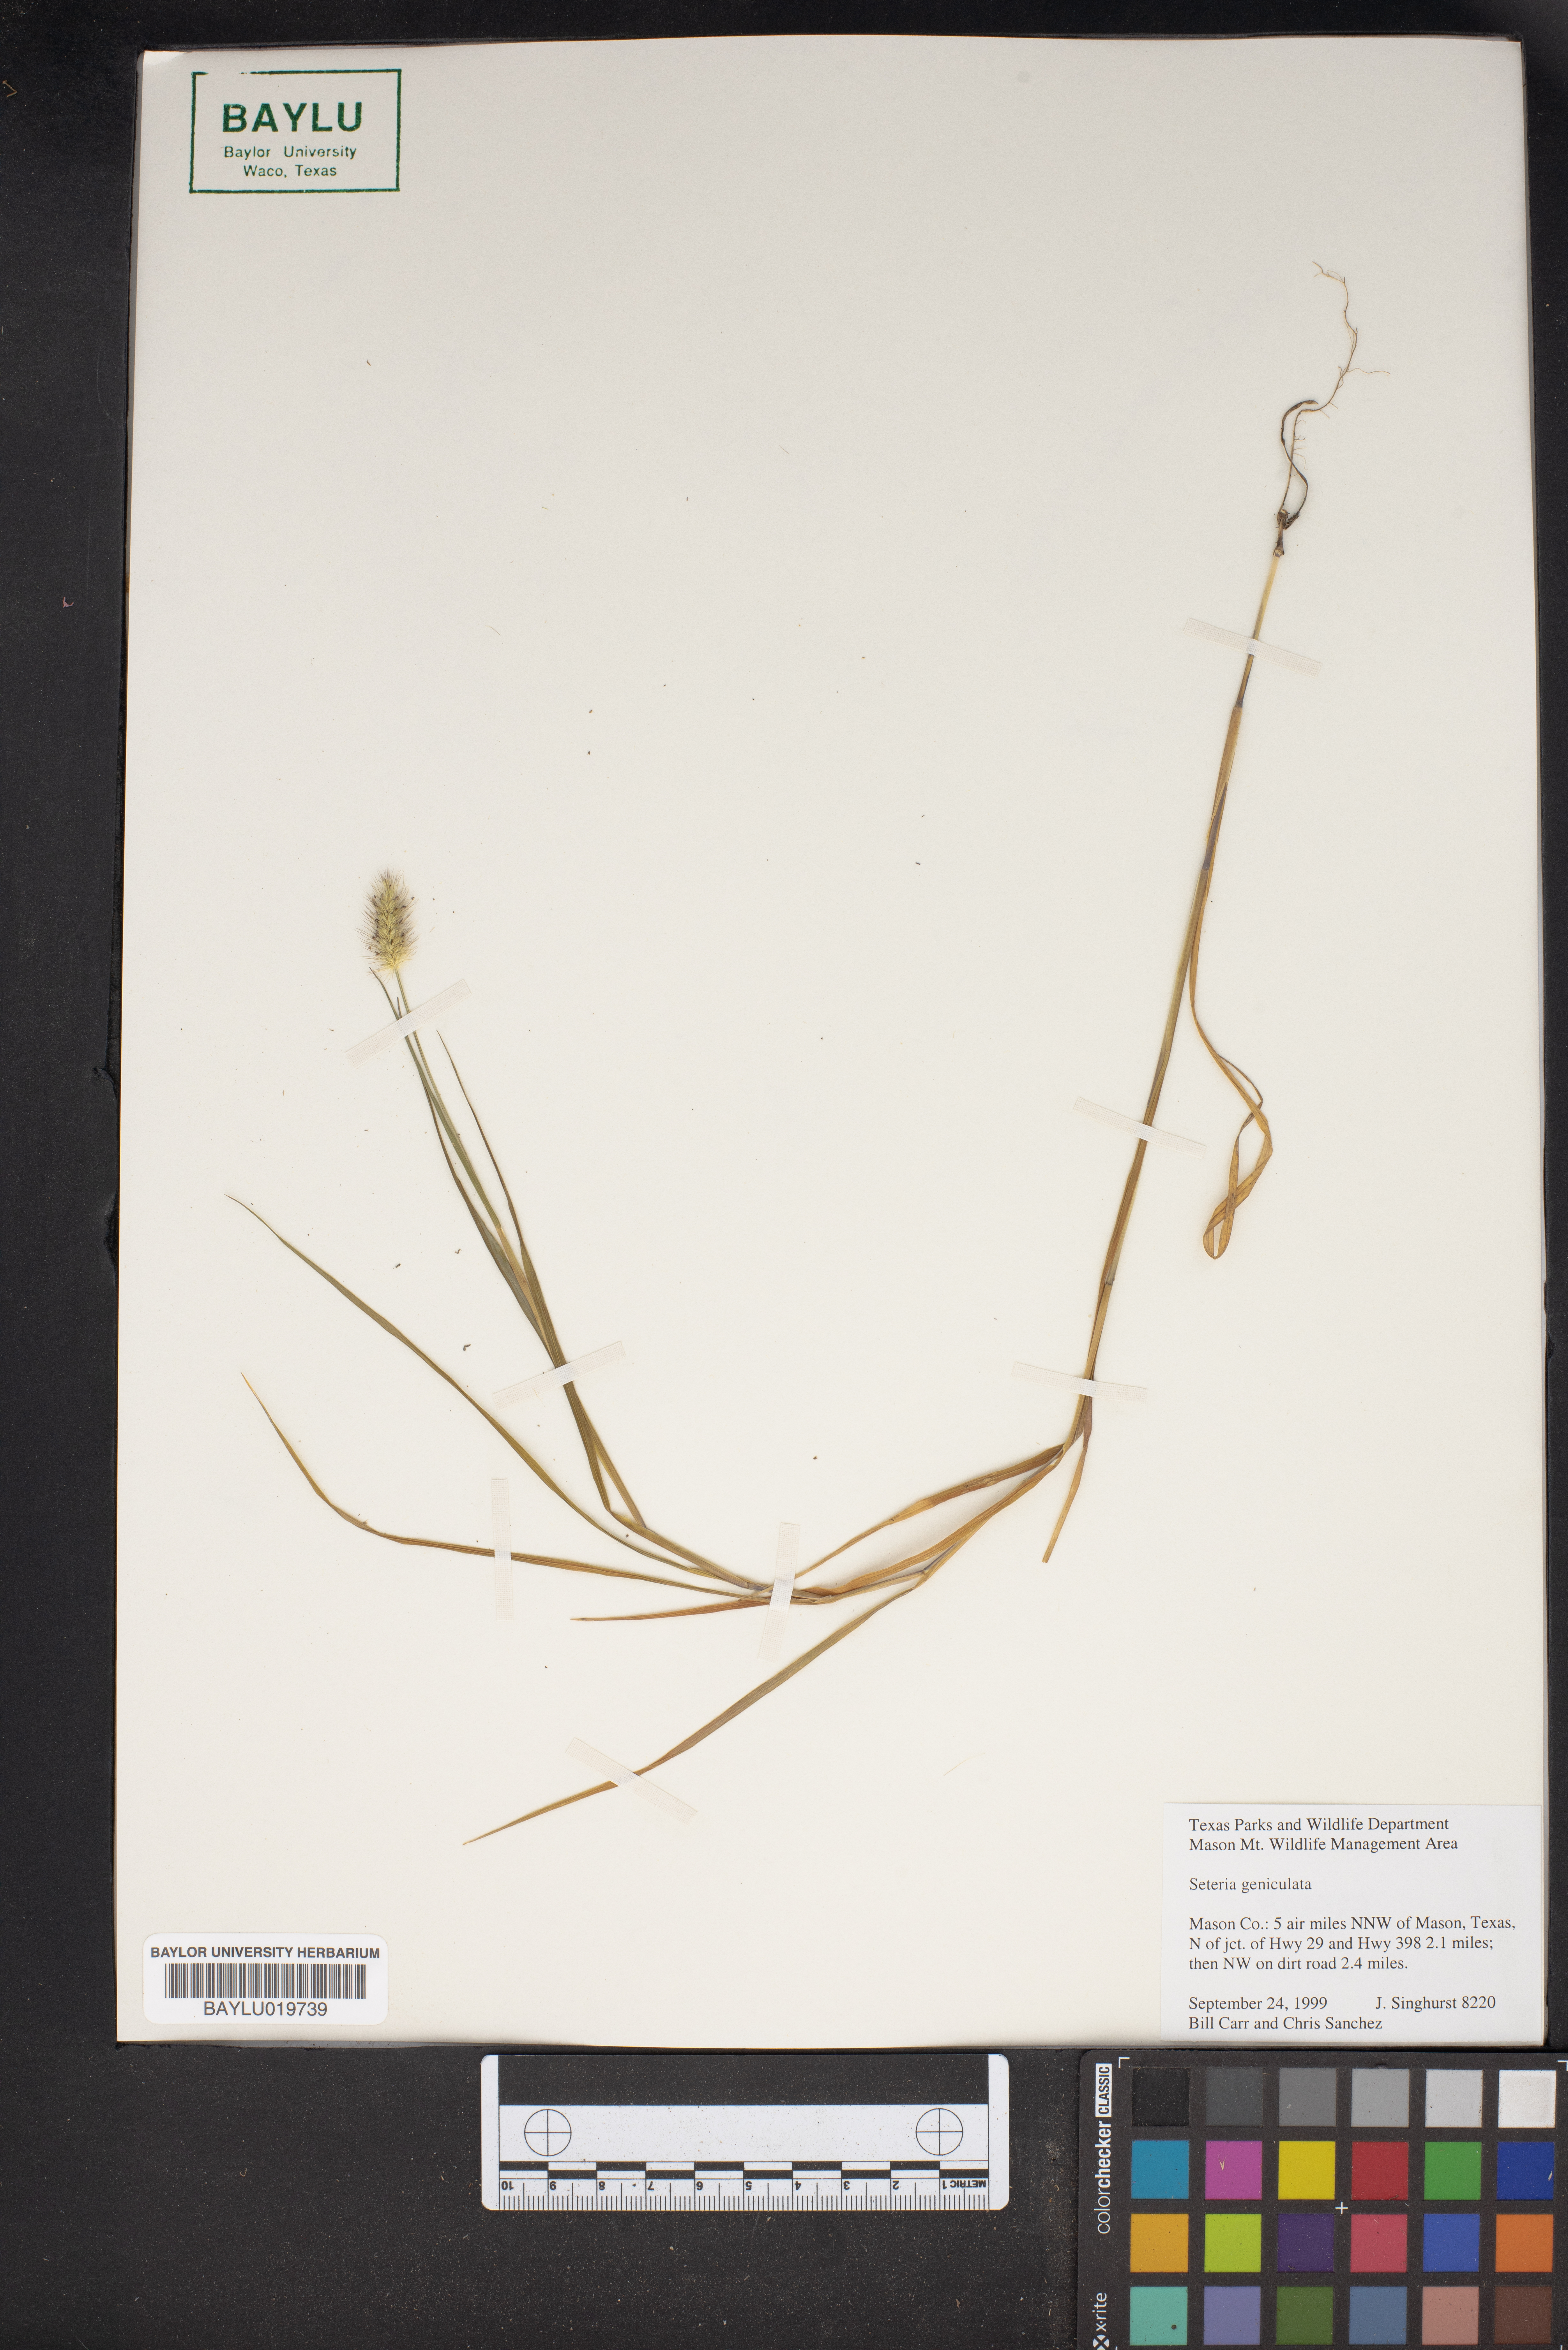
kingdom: Plantae
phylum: Tracheophyta
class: Liliopsida
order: Poales
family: Poaceae
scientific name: Poaceae
